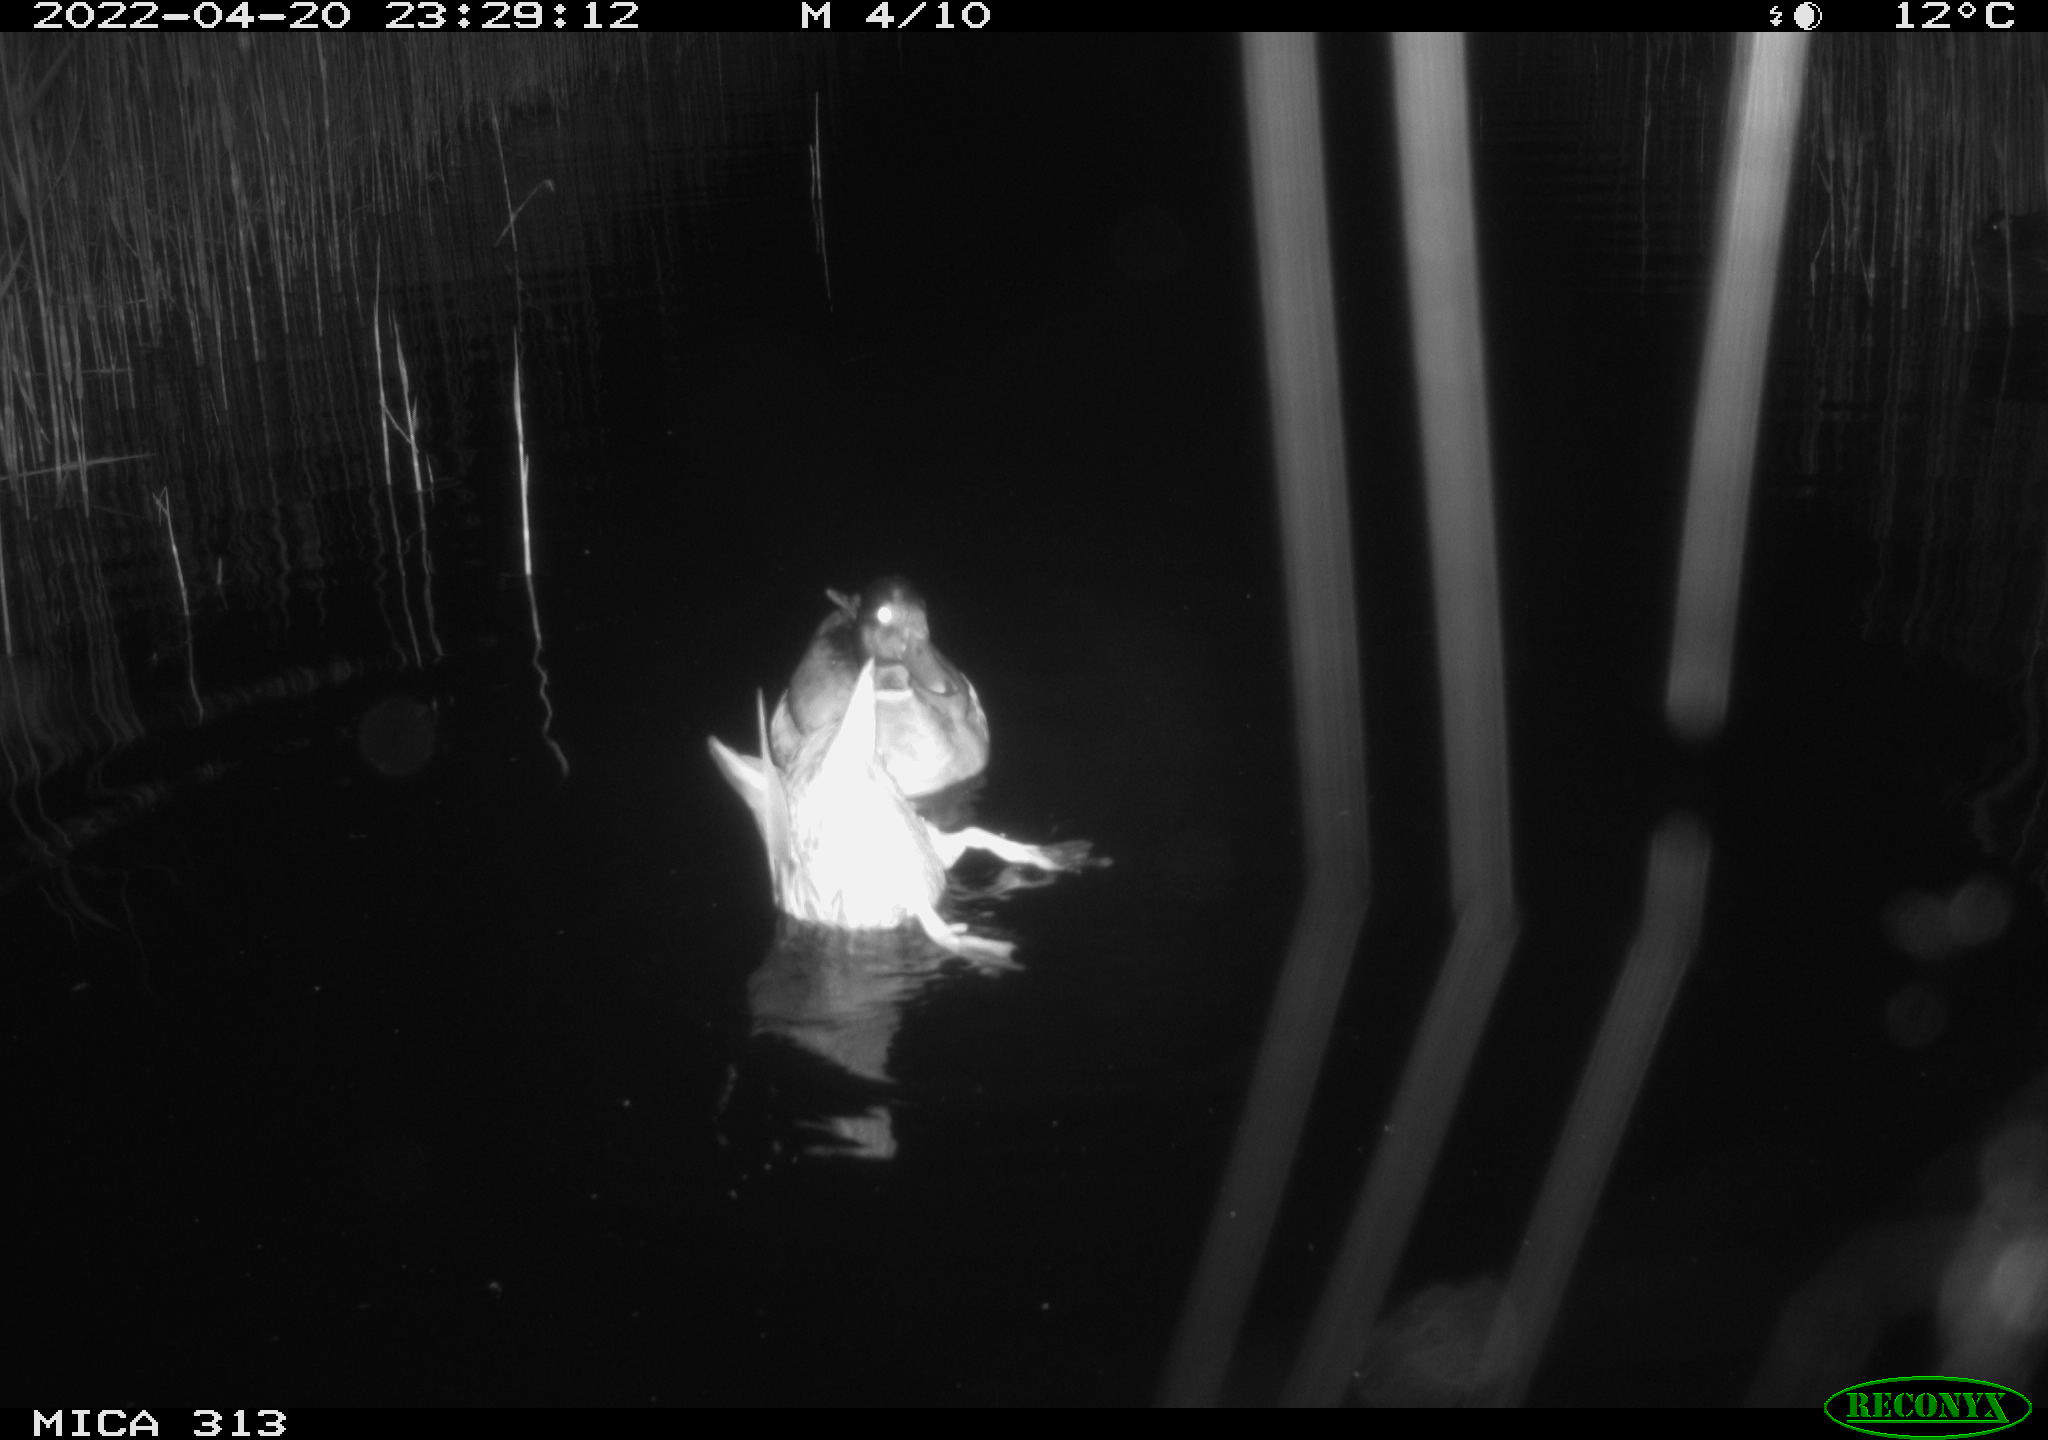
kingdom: Animalia
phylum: Chordata
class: Aves
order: Anseriformes
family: Anatidae
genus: Mareca
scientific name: Mareca strepera
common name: Gadwall
